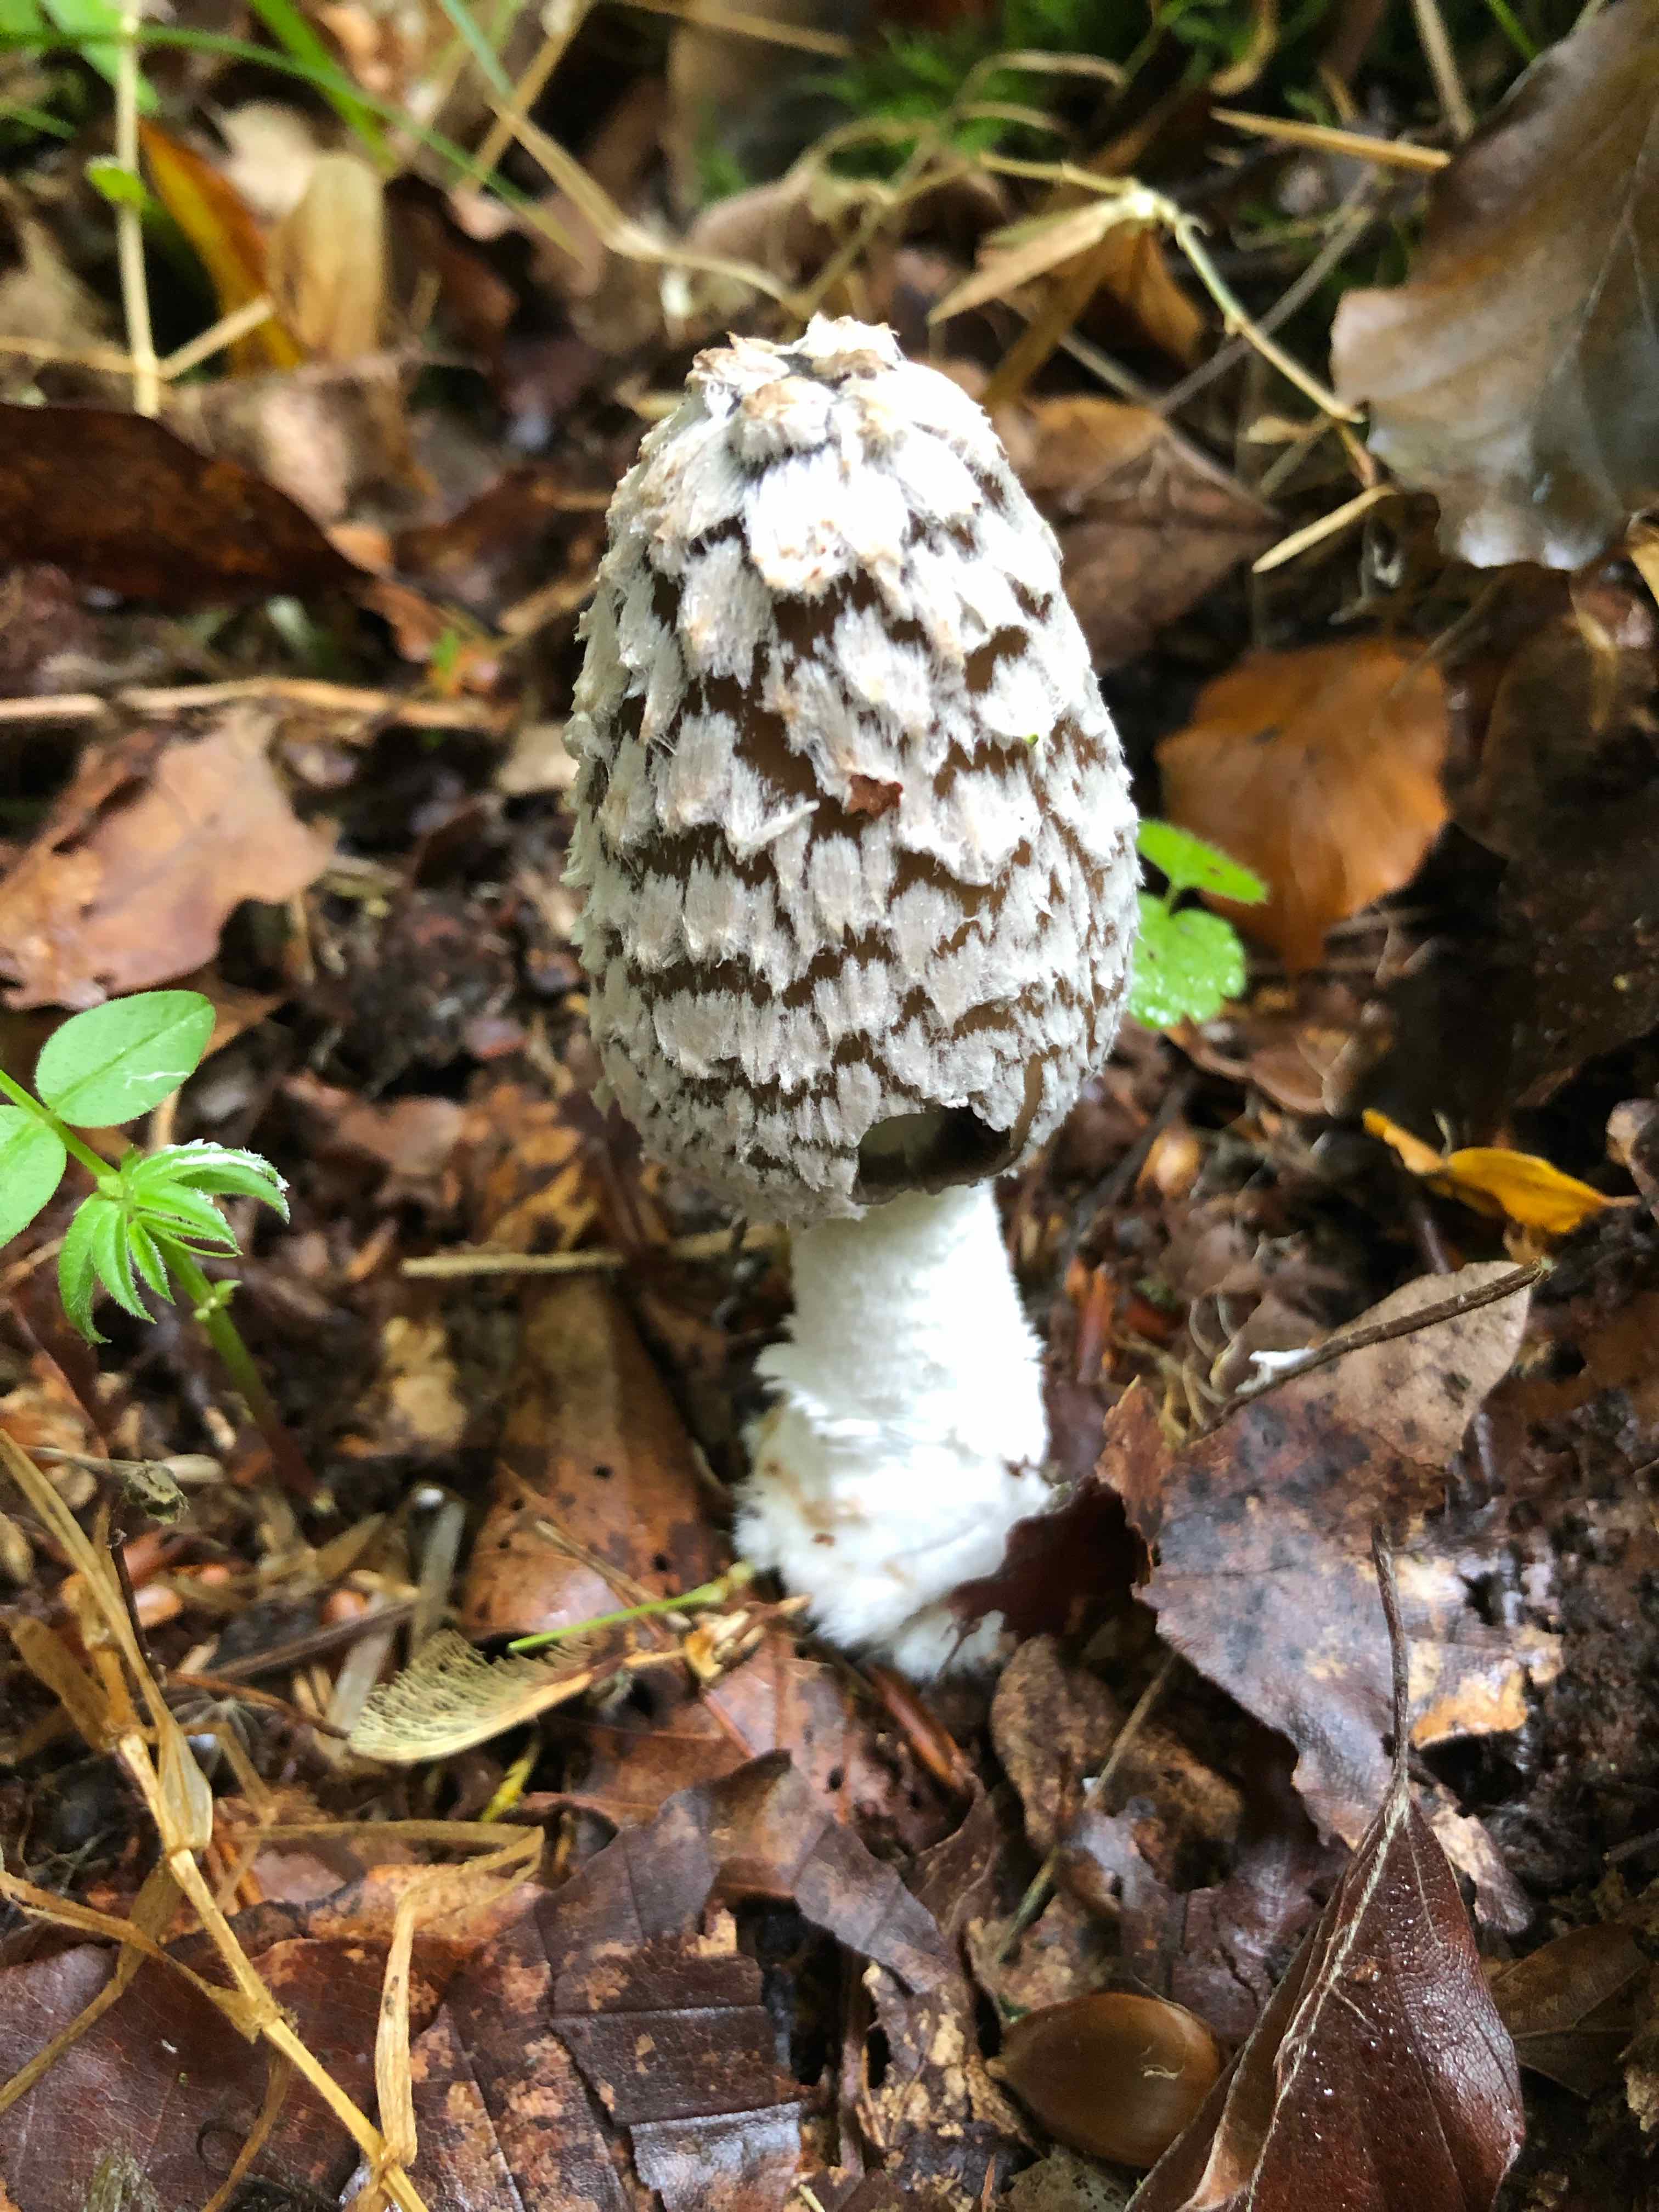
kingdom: Fungi
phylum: Basidiomycota
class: Agaricomycetes
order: Agaricales
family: Psathyrellaceae
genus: Coprinopsis
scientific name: Coprinopsis picacea
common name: skade-blækhat
